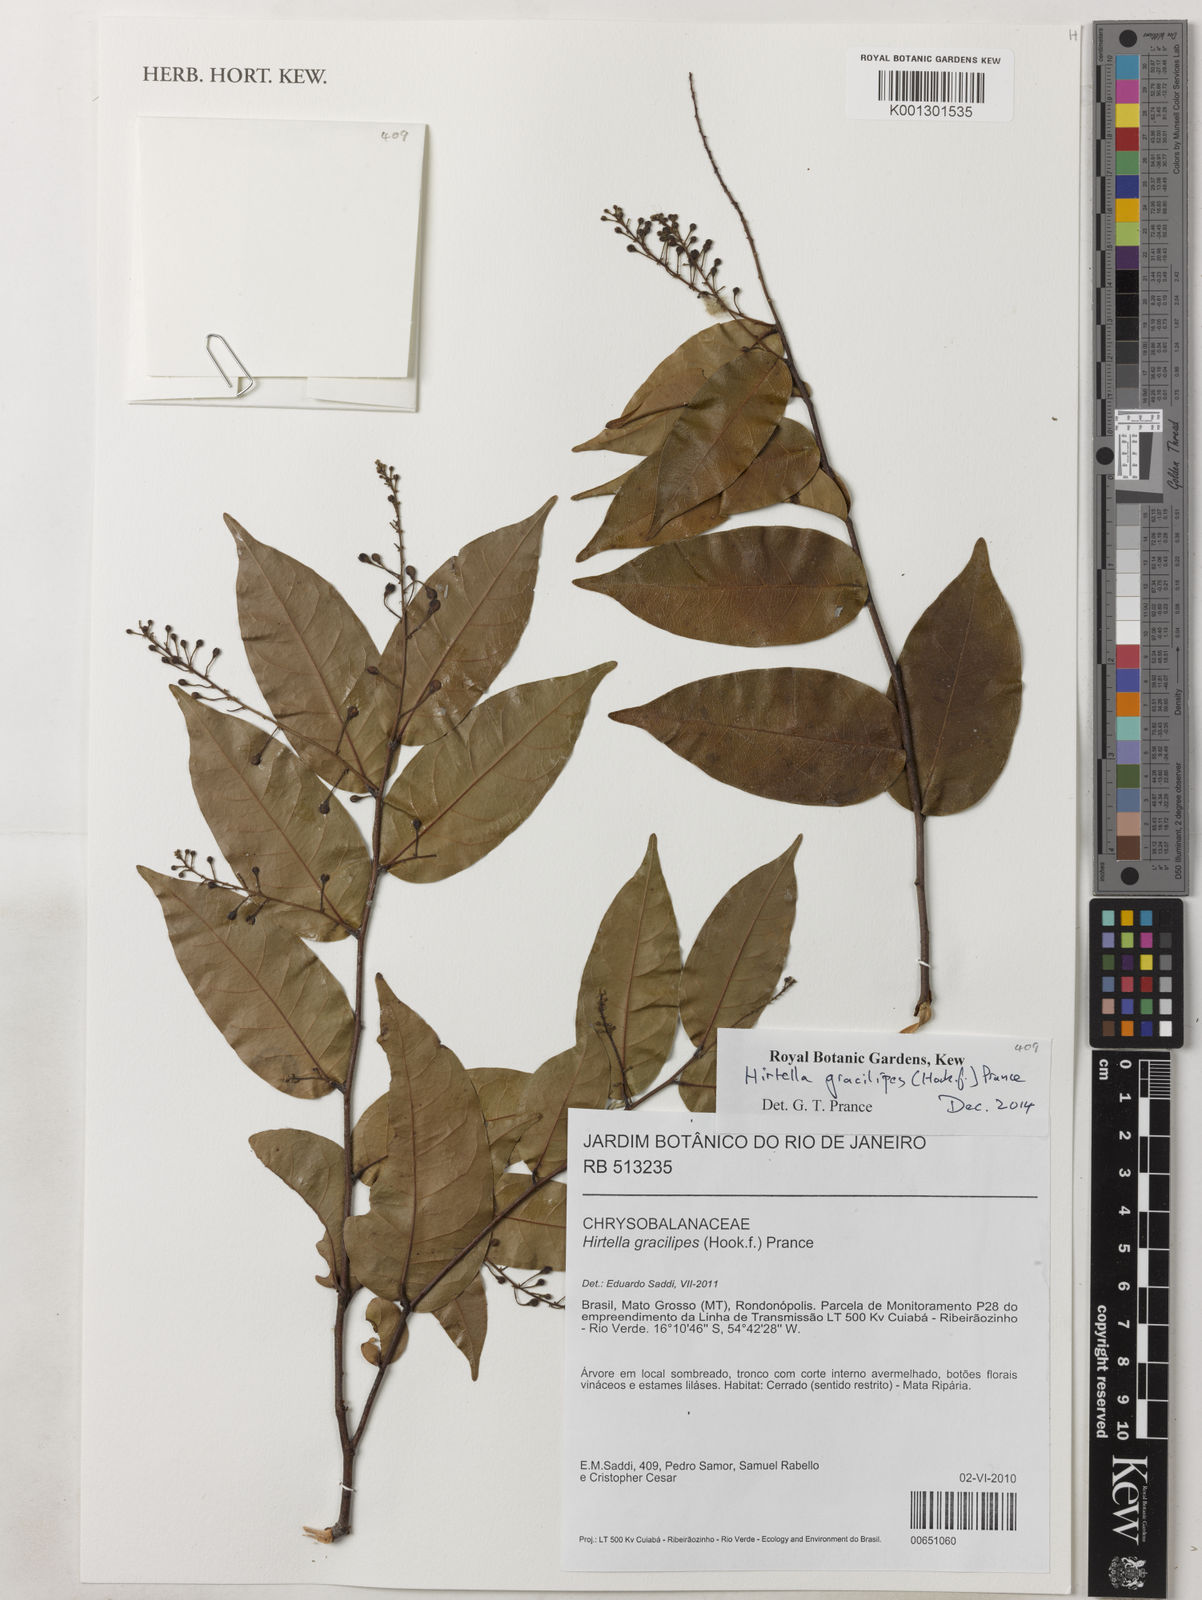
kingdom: Plantae
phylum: Tracheophyta
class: Magnoliopsida
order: Malpighiales
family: Chrysobalanaceae
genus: Hirtella
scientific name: Hirtella gracilipes
